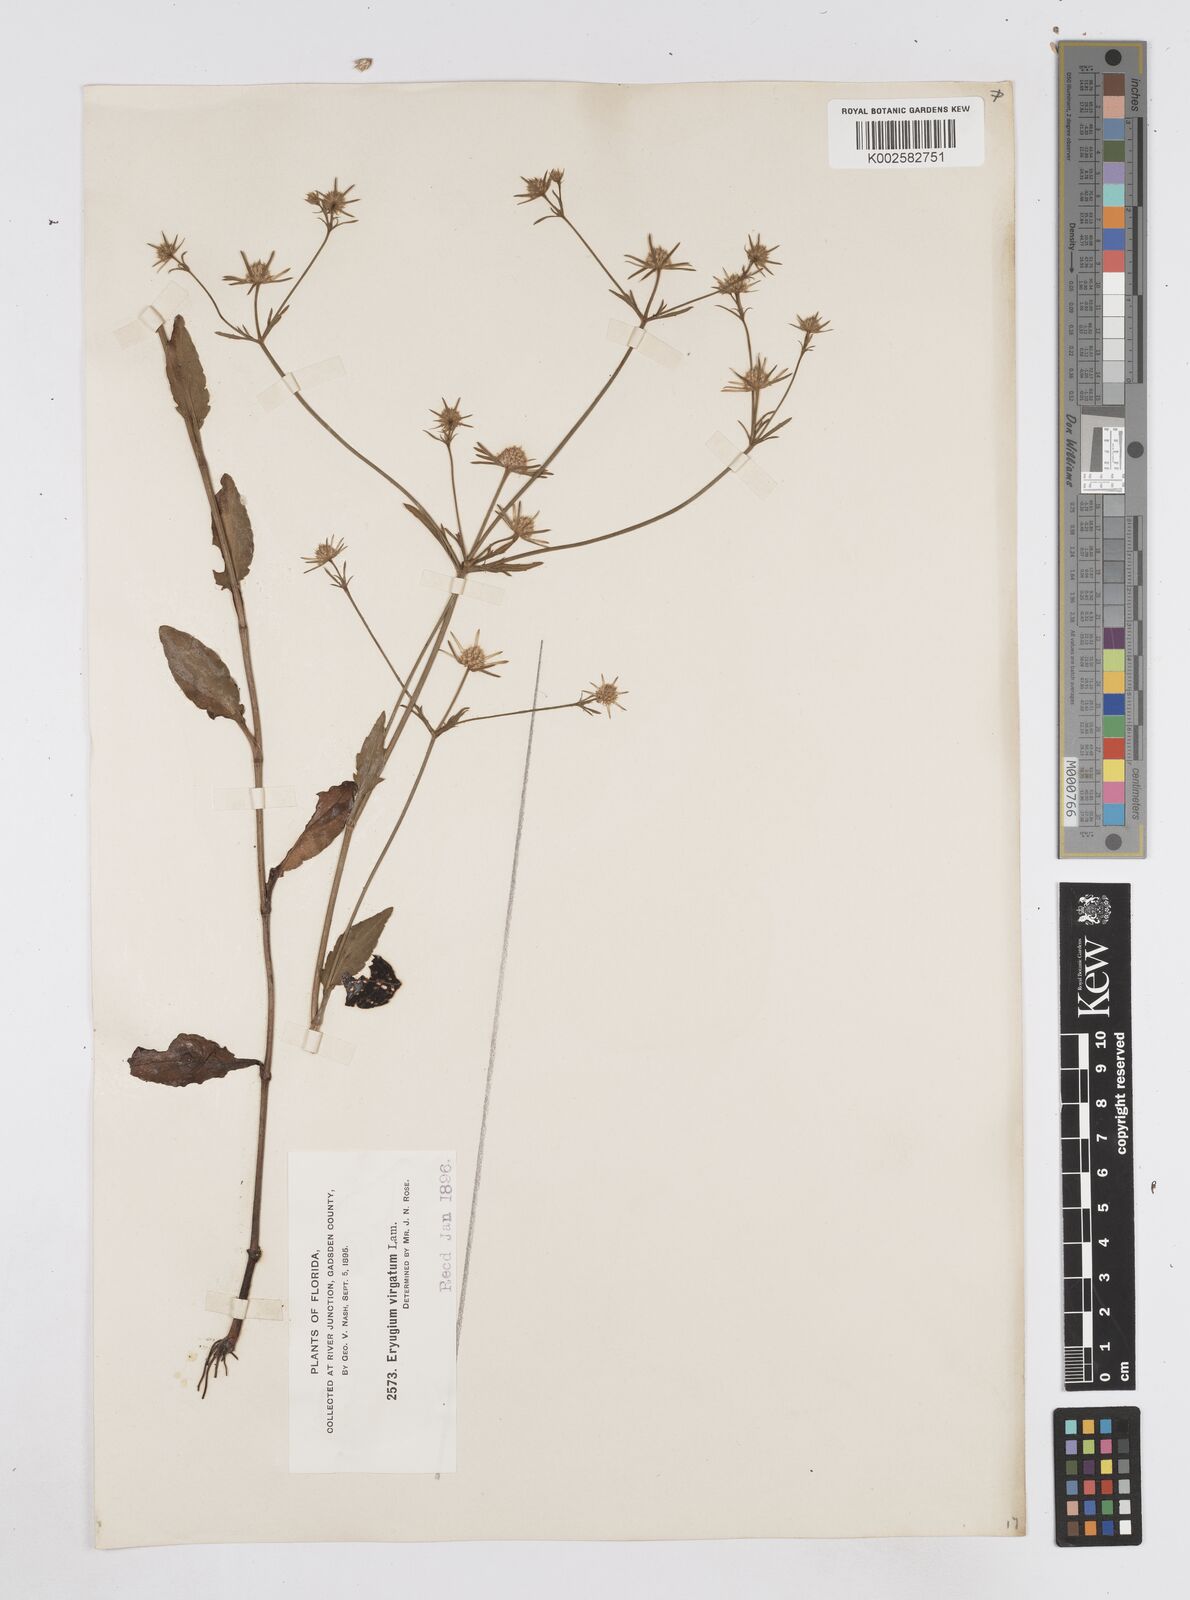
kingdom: Plantae
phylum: Tracheophyta
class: Magnoliopsida
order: Apiales
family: Apiaceae
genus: Eryngium
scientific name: Eryngium integrifolium
